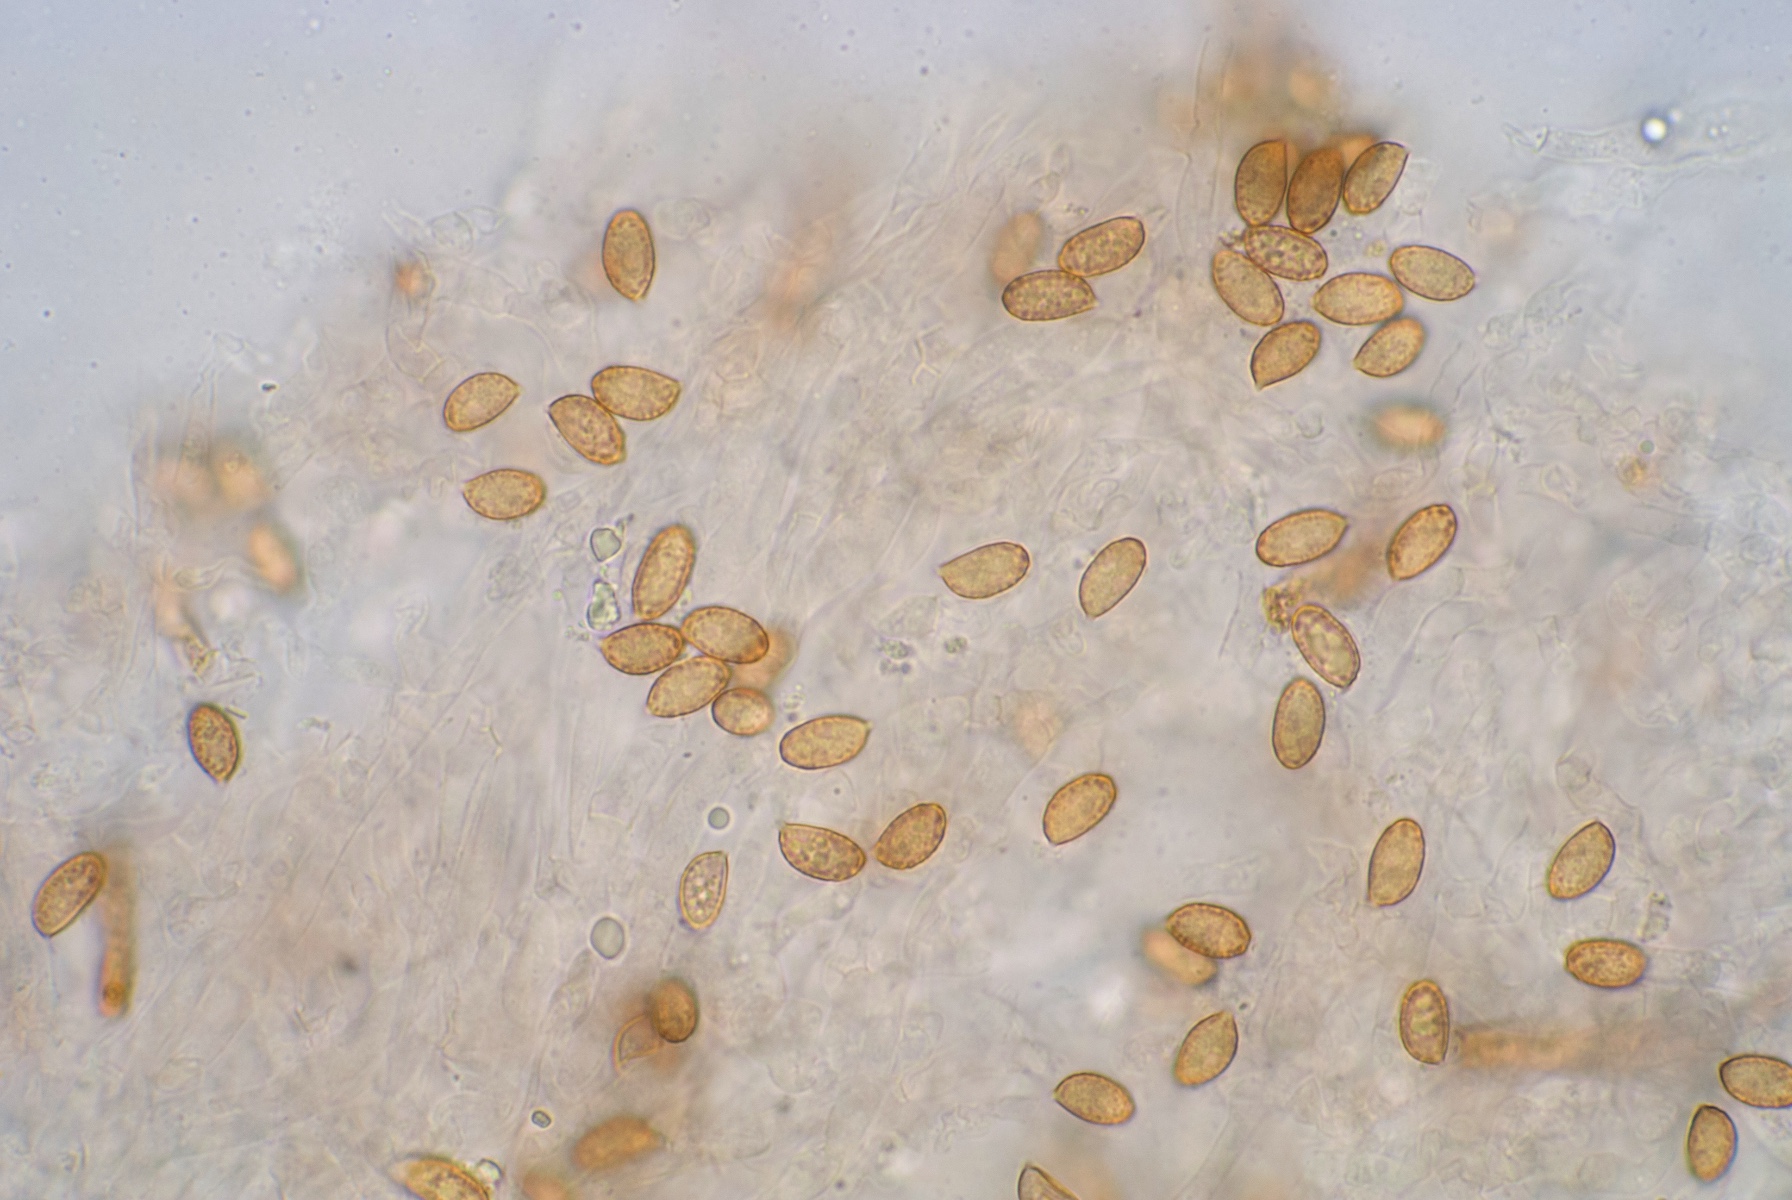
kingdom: Fungi
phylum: Basidiomycota
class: Agaricomycetes
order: Agaricales
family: Cortinariaceae
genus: Cortinarius
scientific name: Cortinarius spisnii
